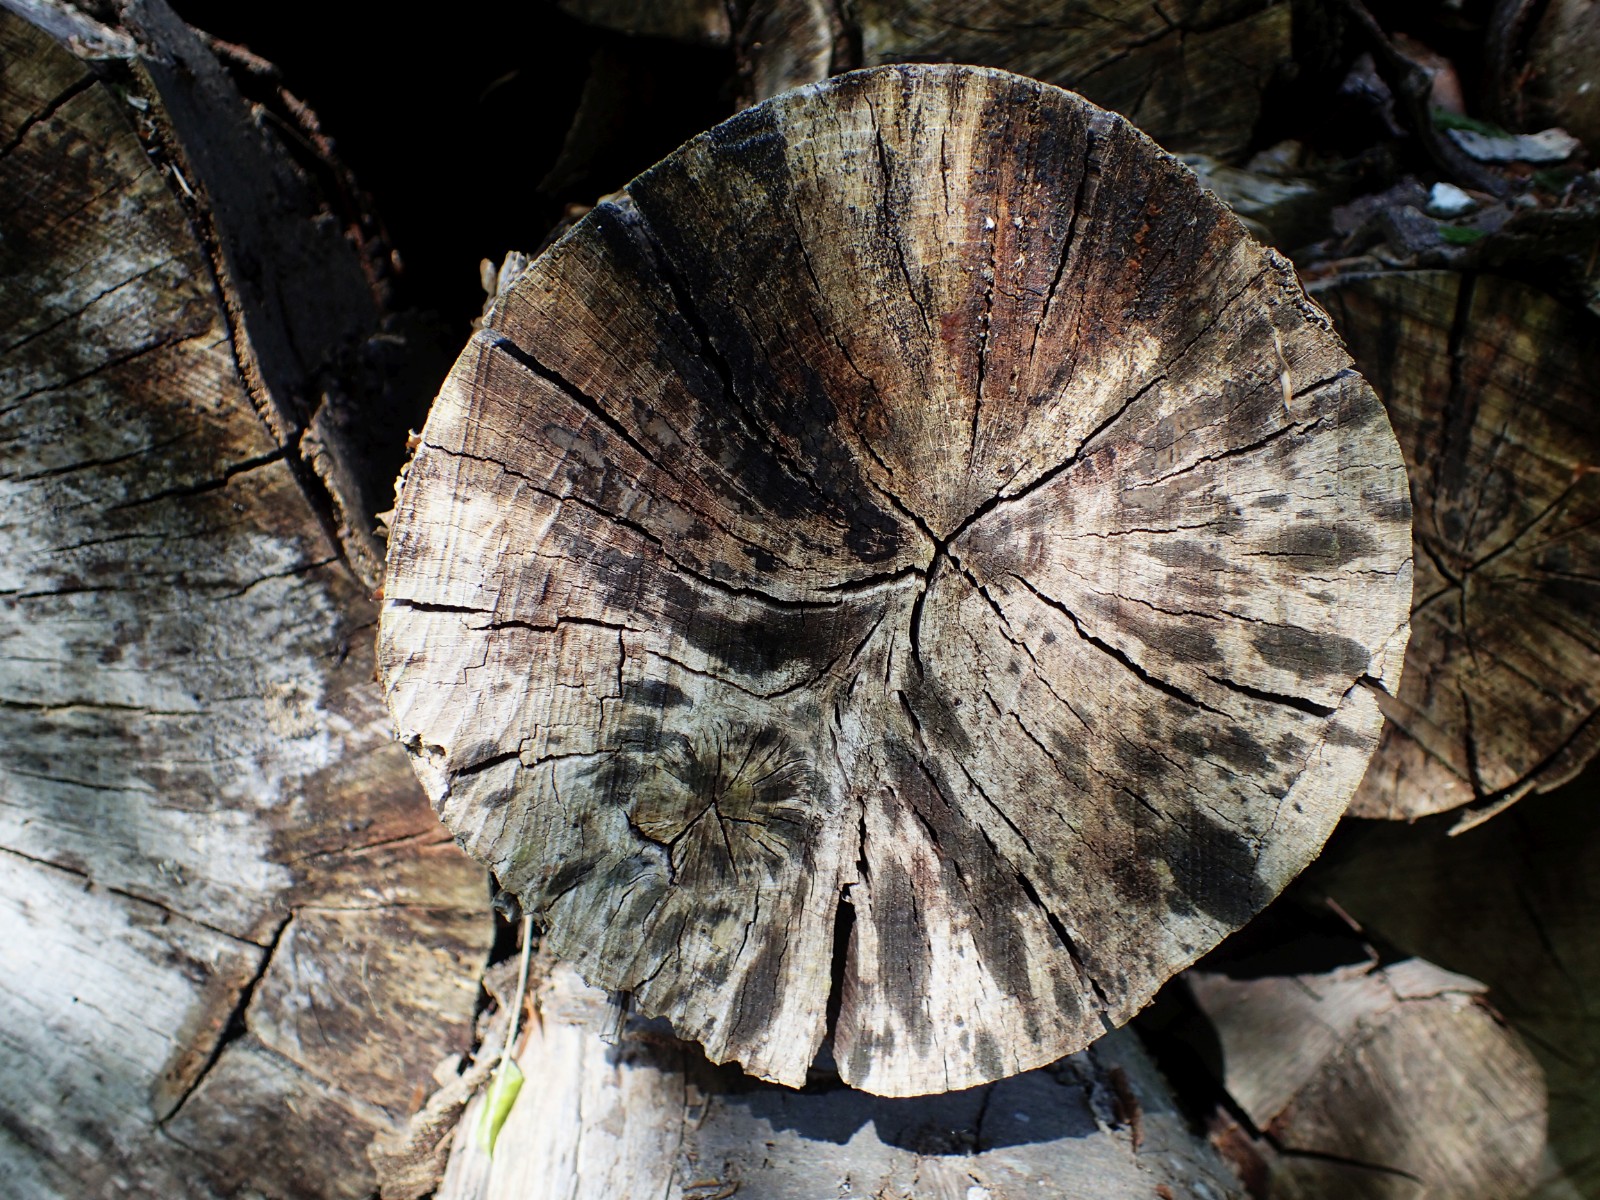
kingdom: Fungi
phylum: Ascomycota
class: Leotiomycetes
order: Helotiales
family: Helotiaceae
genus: Bispora
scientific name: Bispora pallescens
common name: måtte-snitskive
